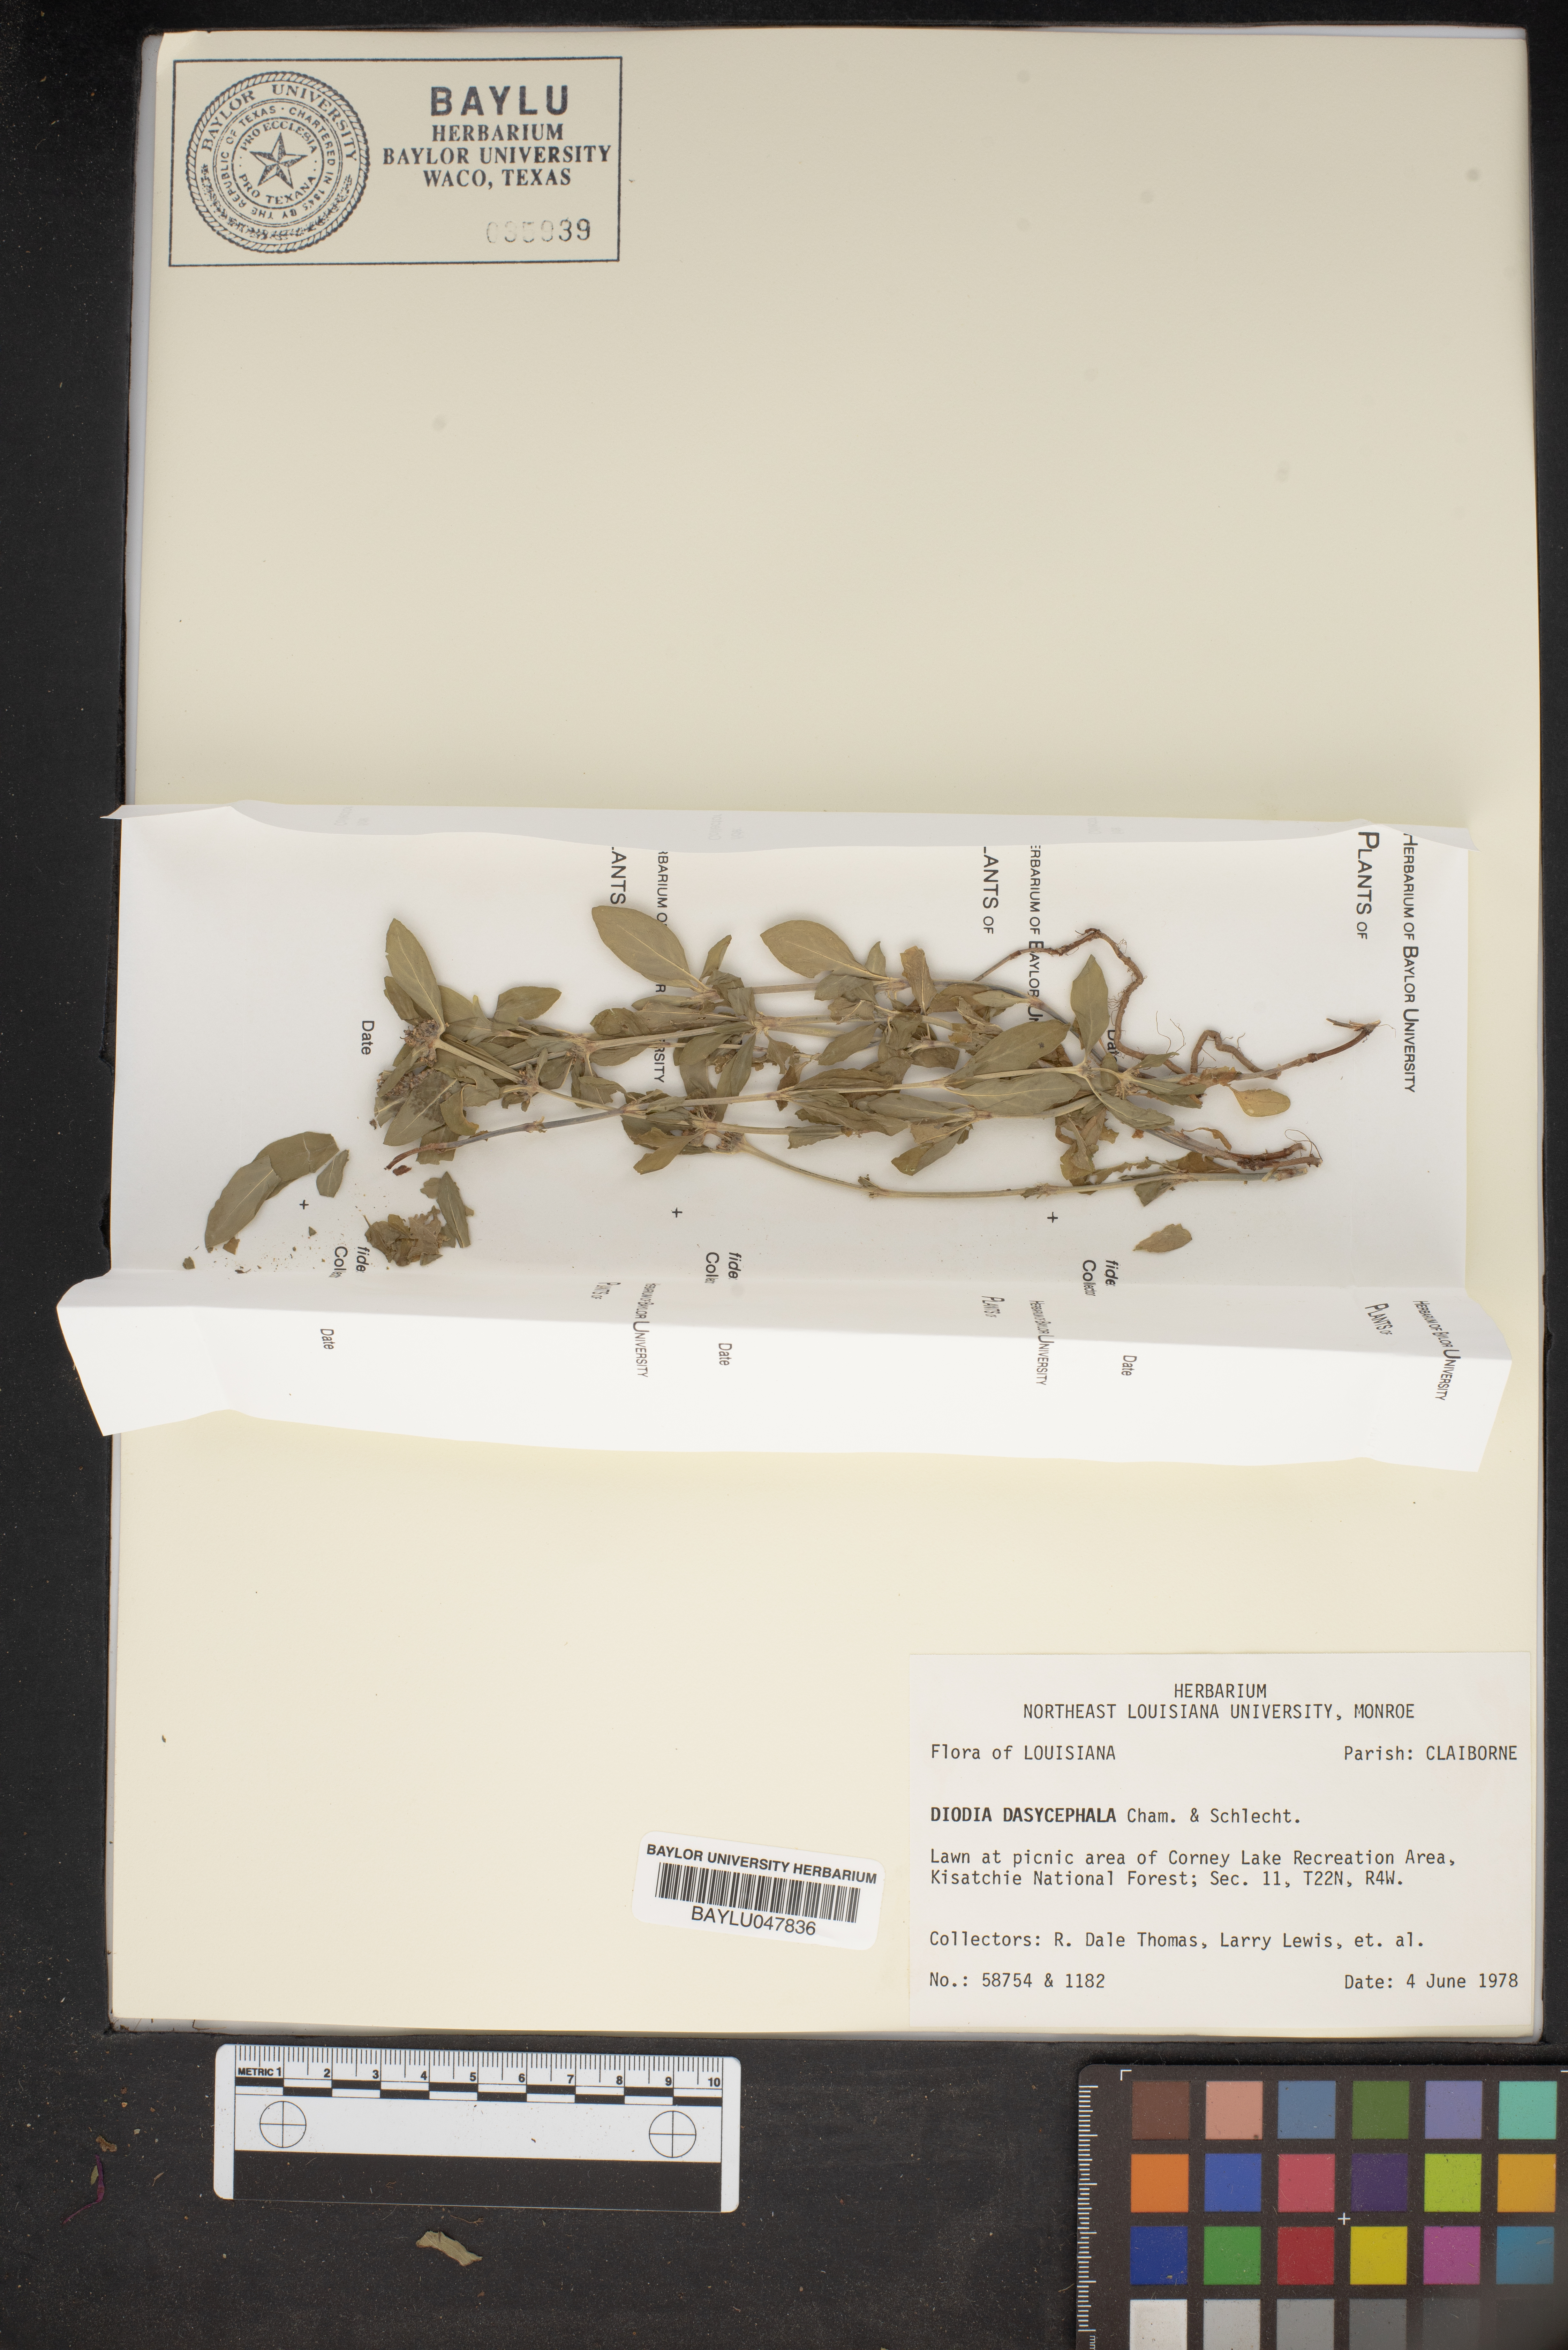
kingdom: Plantae
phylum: Tracheophyta
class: Magnoliopsida
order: Gentianales
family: Rubiaceae
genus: Spermacoce
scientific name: Spermacoce dasycephala
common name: False buttonweed
